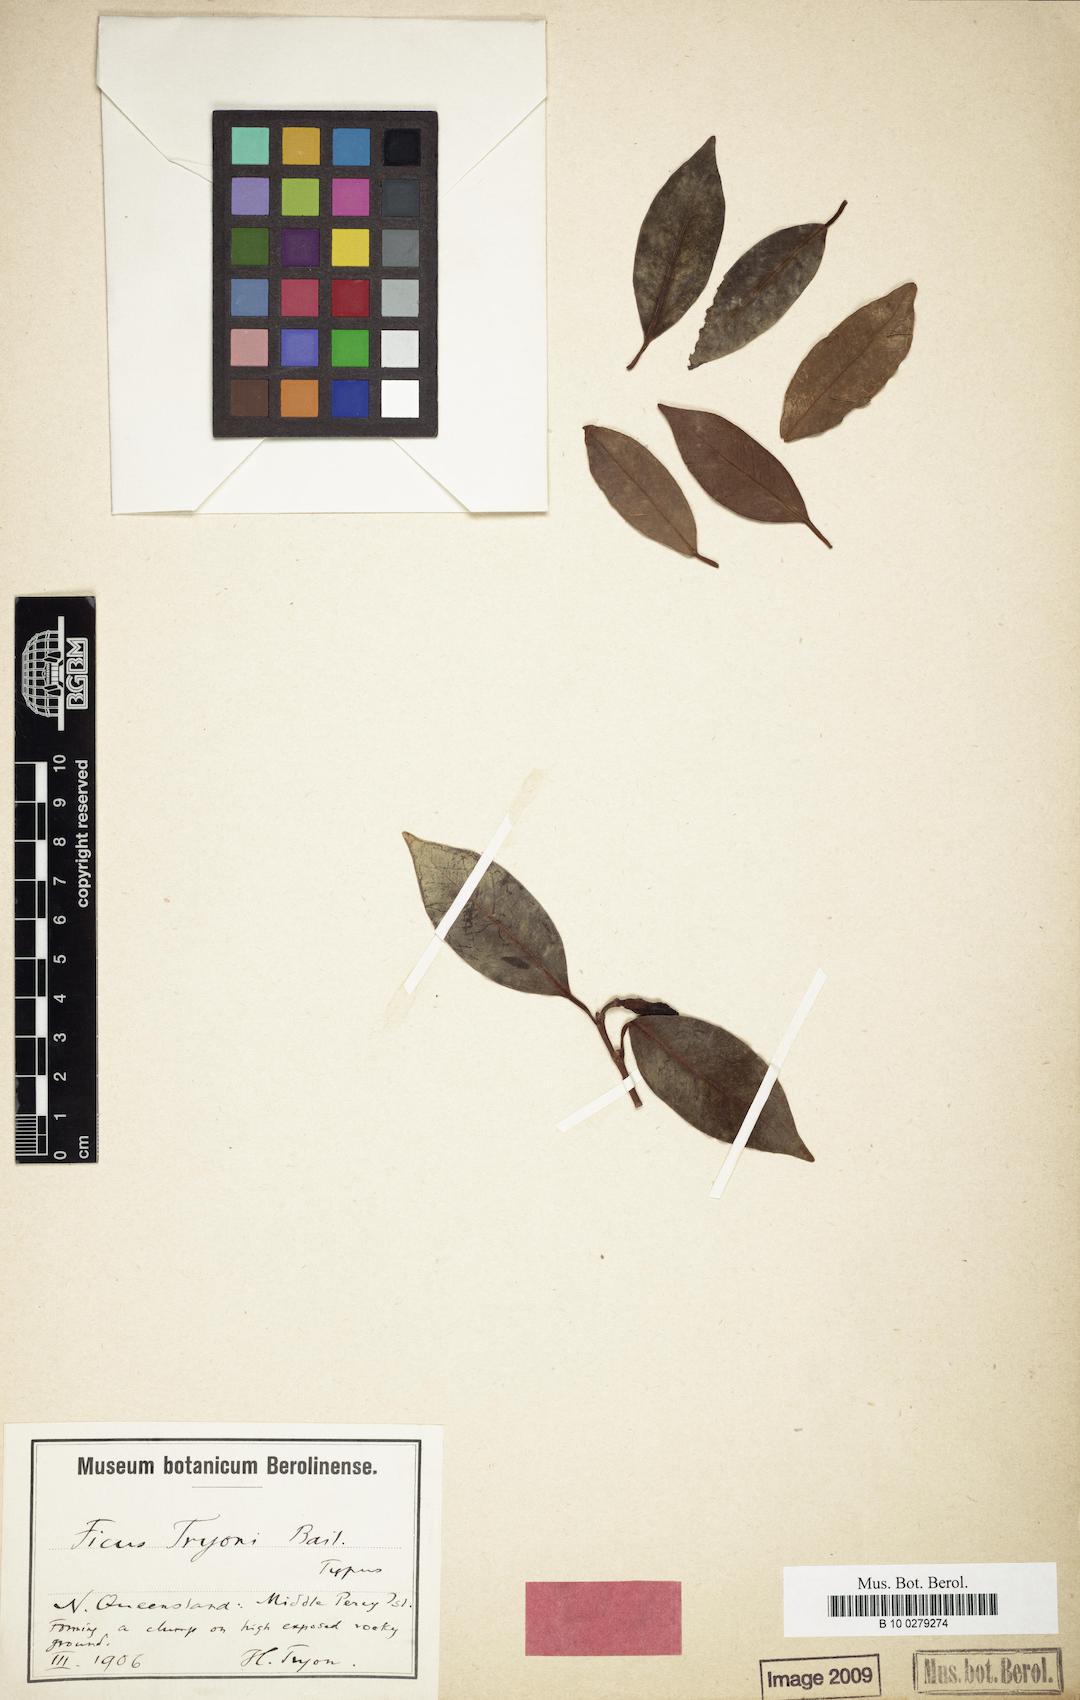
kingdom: Plantae
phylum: Tracheophyta
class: Magnoliopsida
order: Rosales
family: Moraceae
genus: Ficus
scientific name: Ficus obliqua
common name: Small-leaf fig
